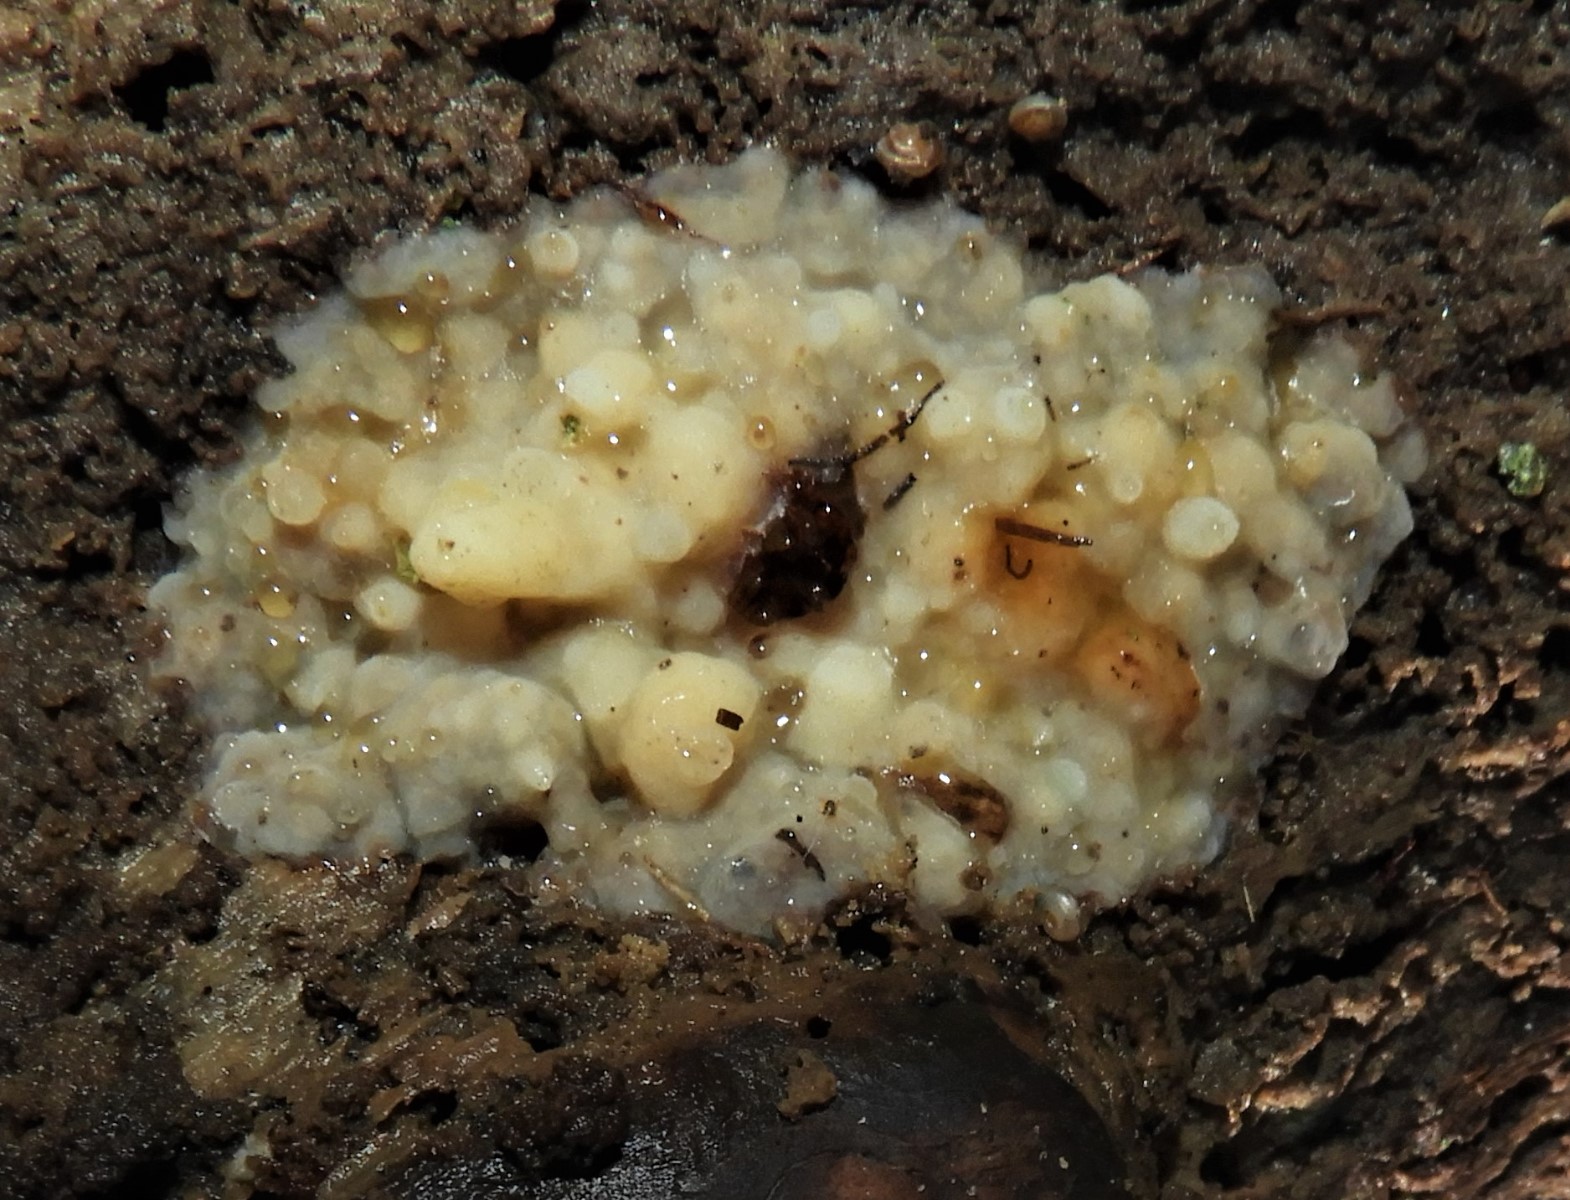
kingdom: Fungi
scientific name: Fungi
